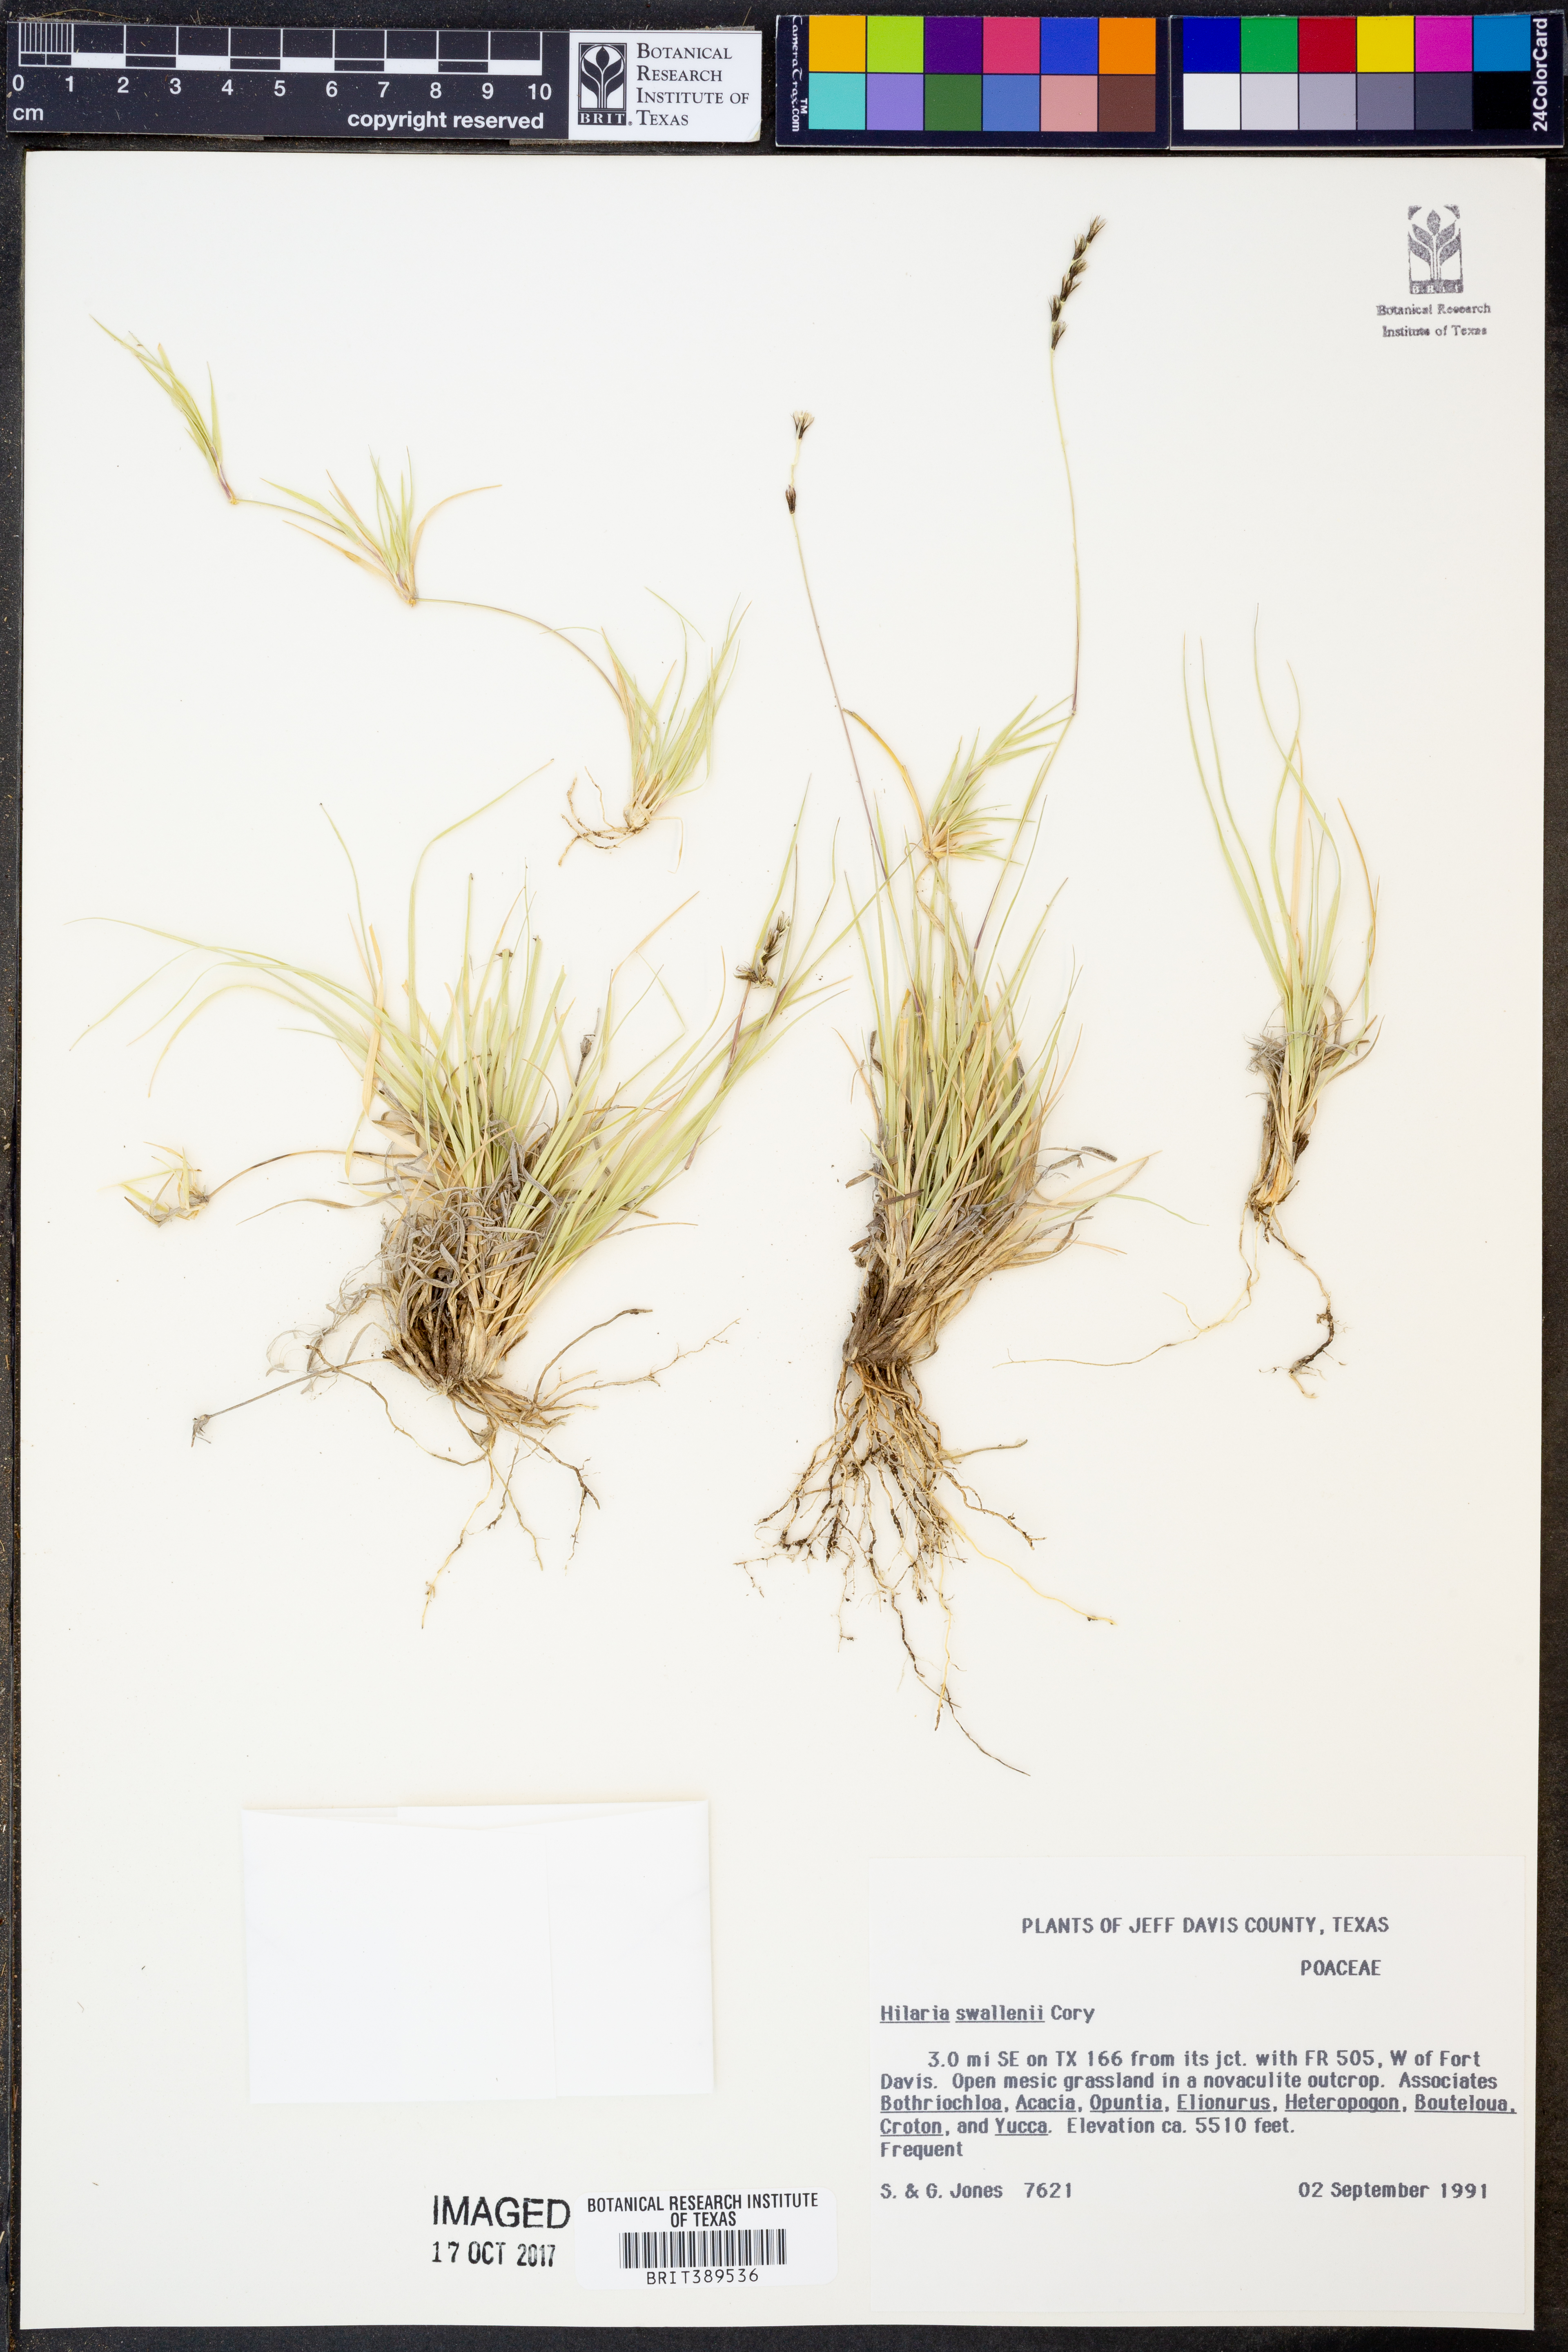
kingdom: Plantae
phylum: Tracheophyta
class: Liliopsida
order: Poales
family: Poaceae
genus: Hilaria
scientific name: Hilaria swallenii
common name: Swallen's curly-mesquite
